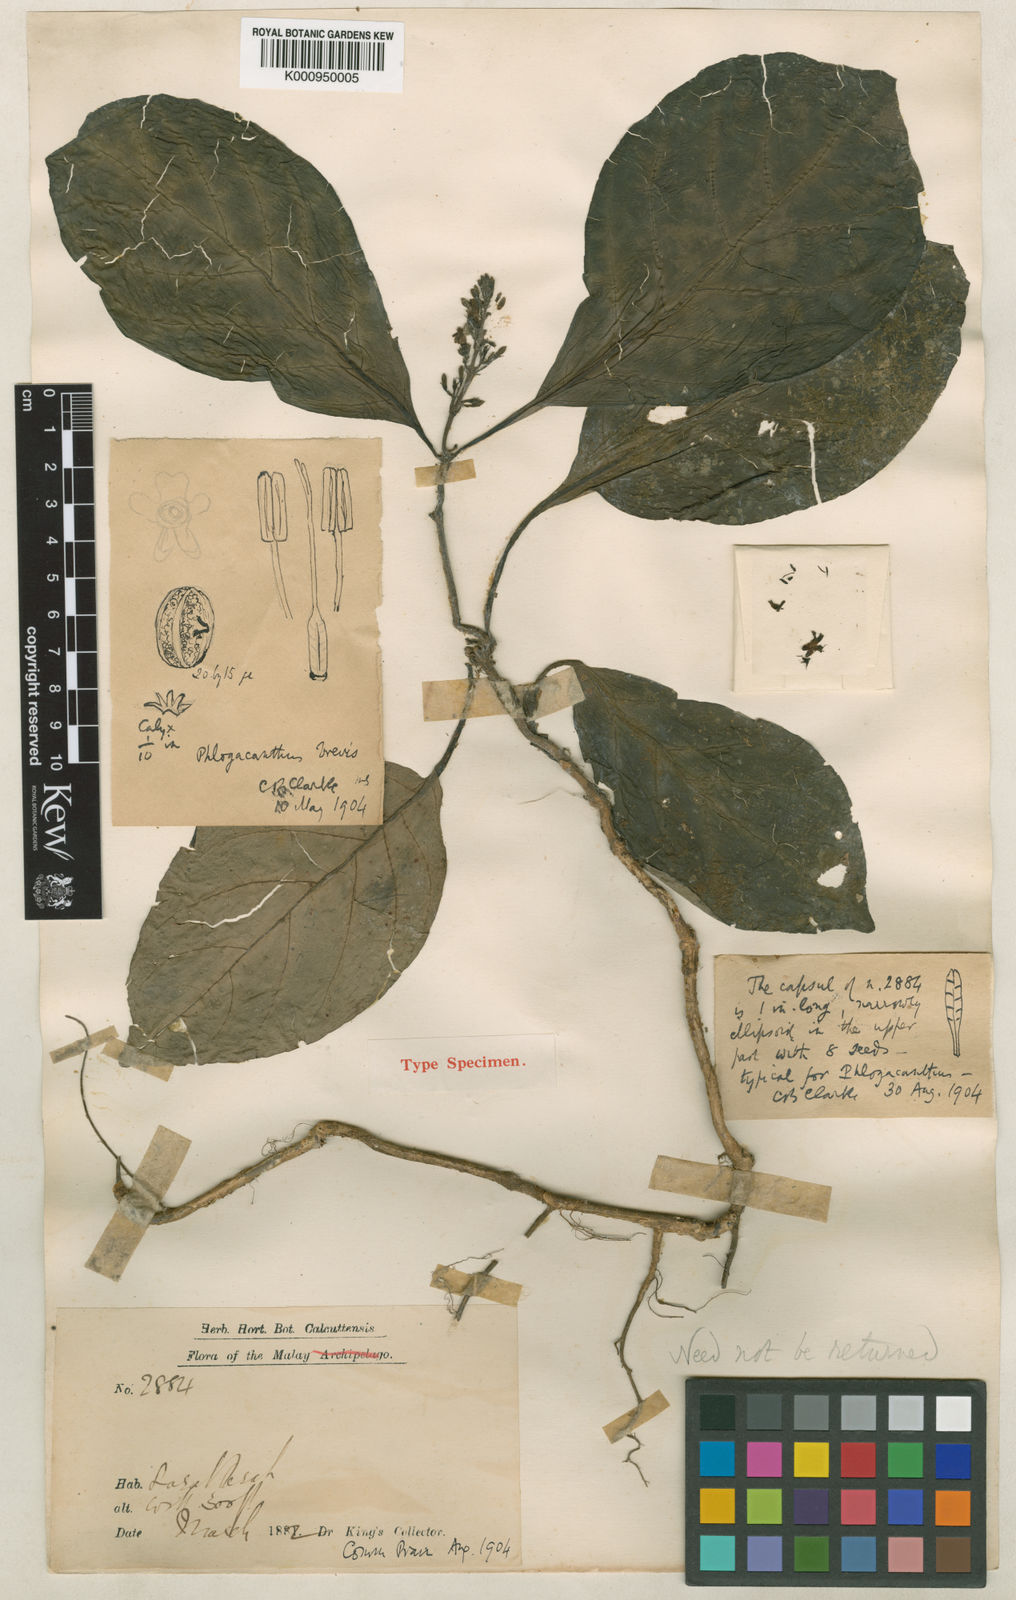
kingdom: Plantae
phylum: Tracheophyta
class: Magnoliopsida
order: Lamiales
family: Acanthaceae
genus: Phlogacanthus
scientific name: Phlogacanthus brevis
